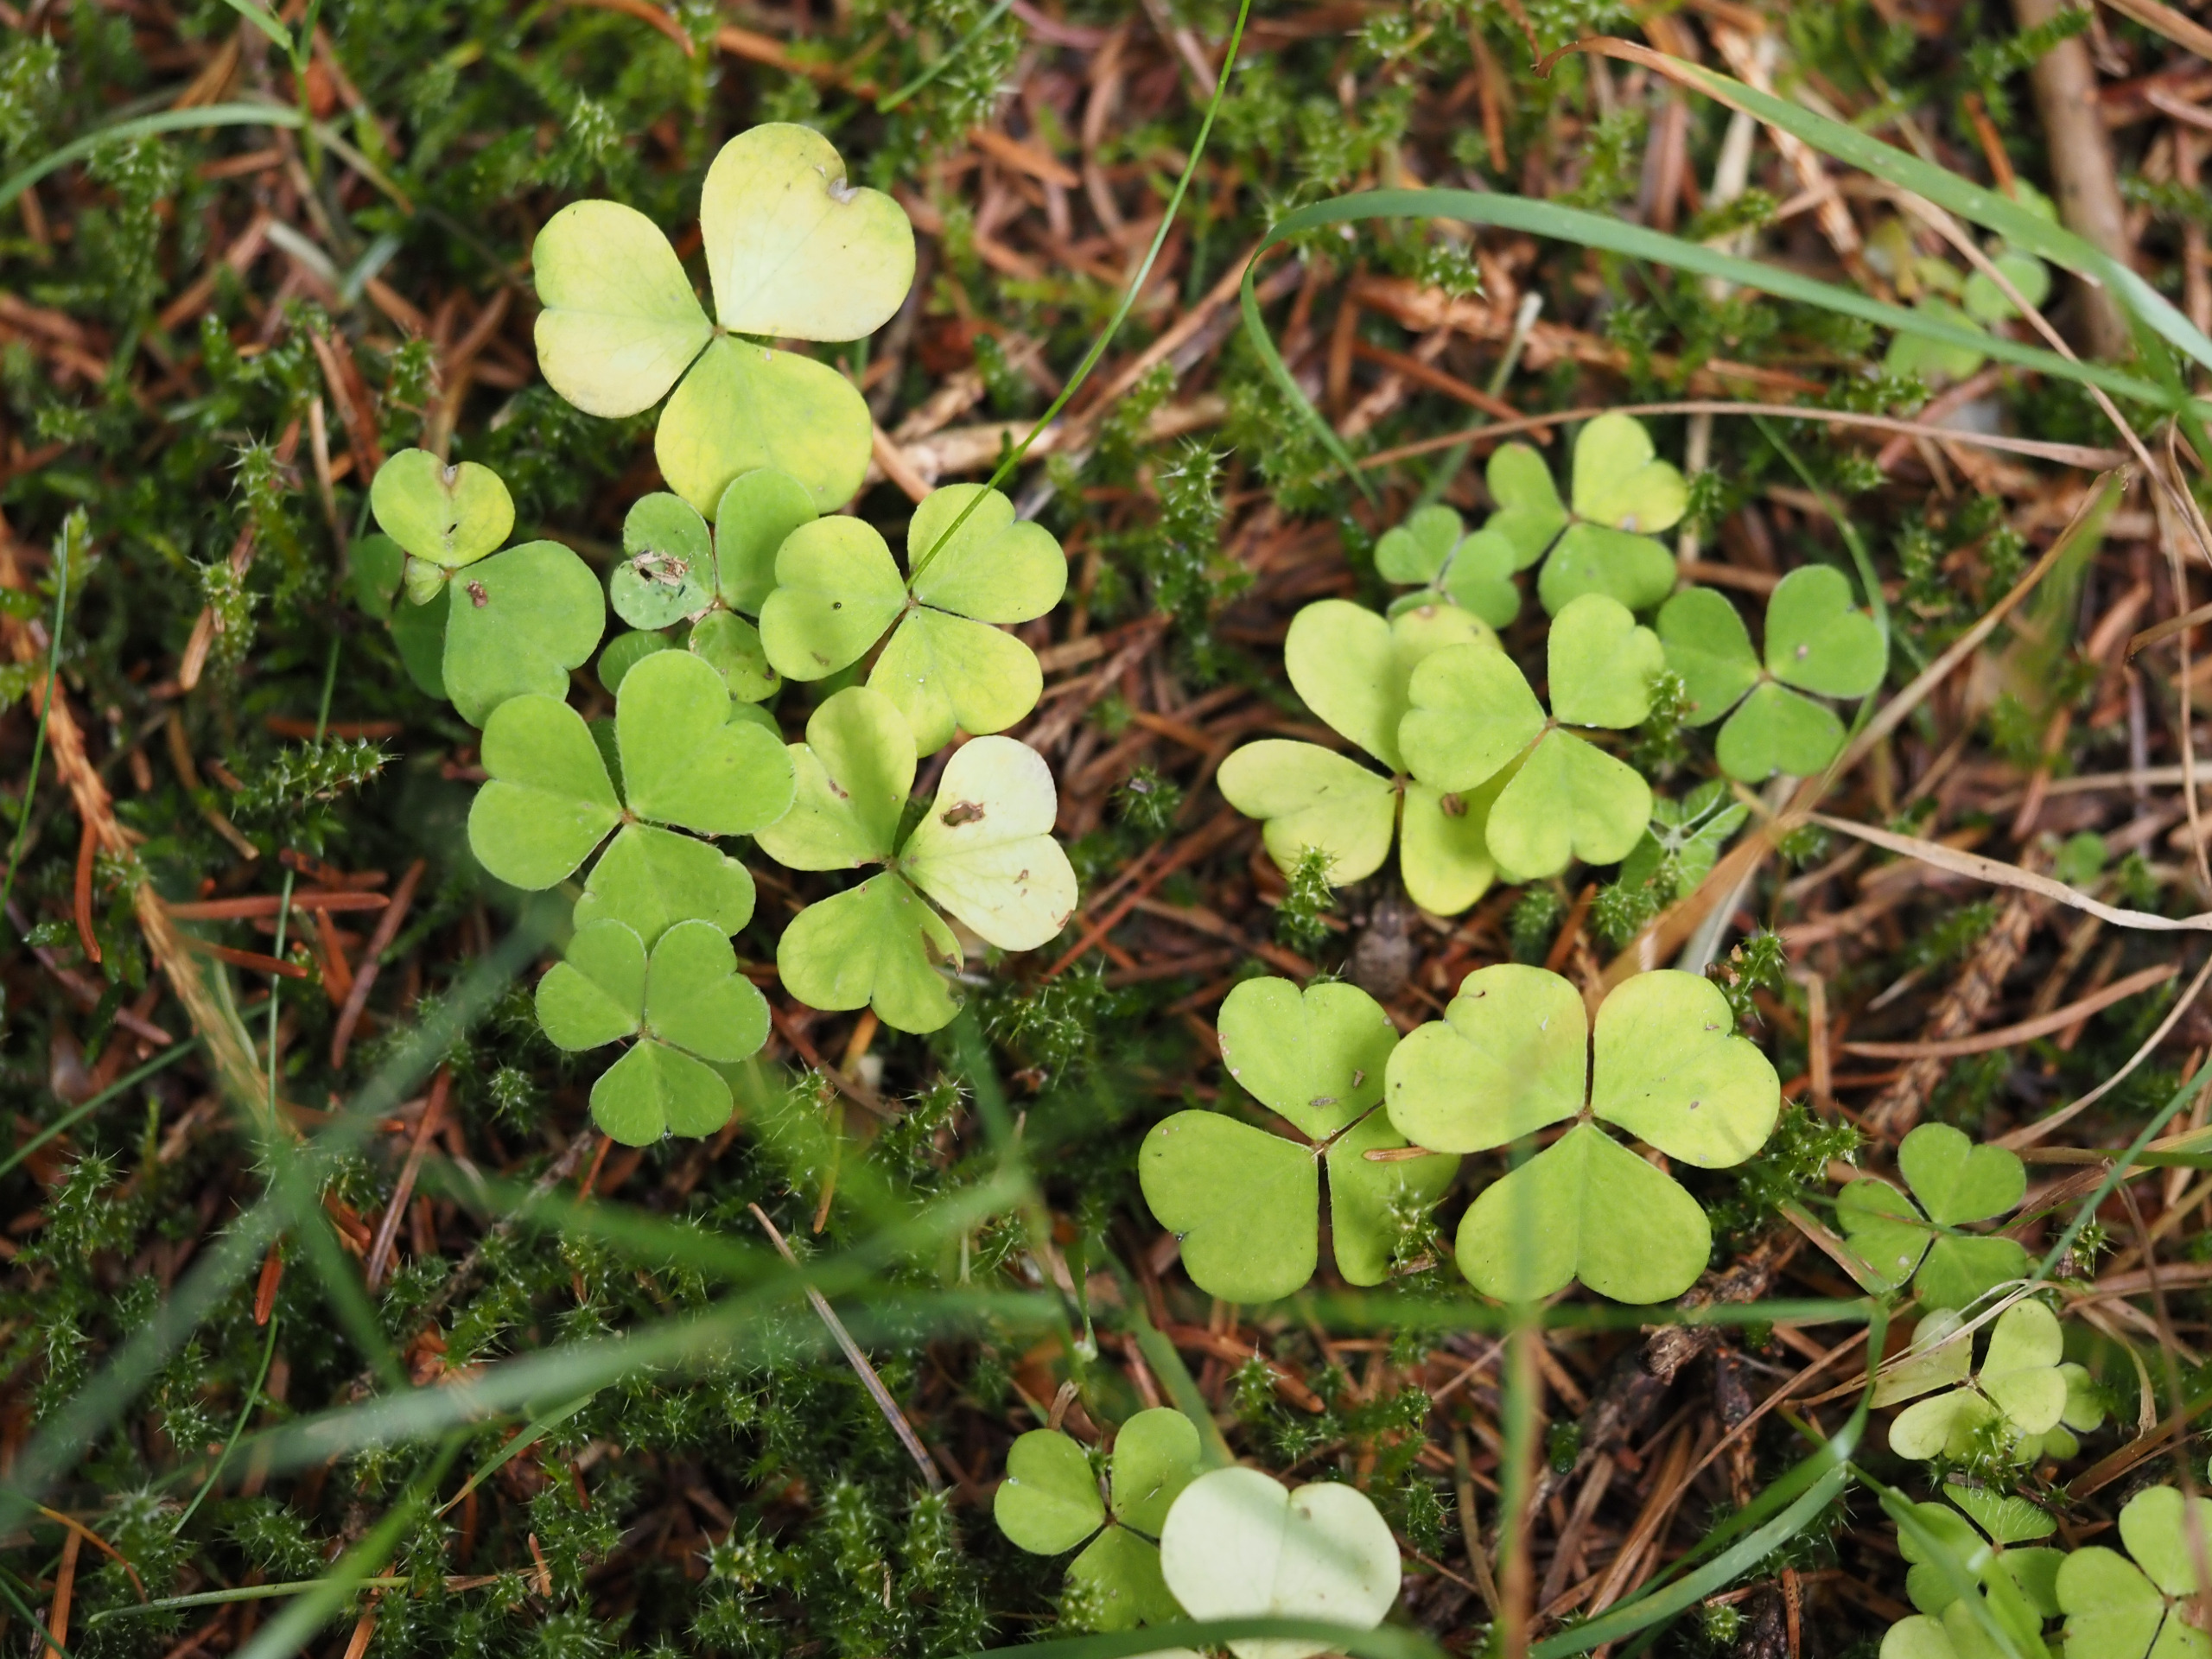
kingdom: Plantae
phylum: Tracheophyta
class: Magnoliopsida
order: Oxalidales
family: Oxalidaceae
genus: Oxalis
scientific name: Oxalis acetosella
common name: Skovsyre
